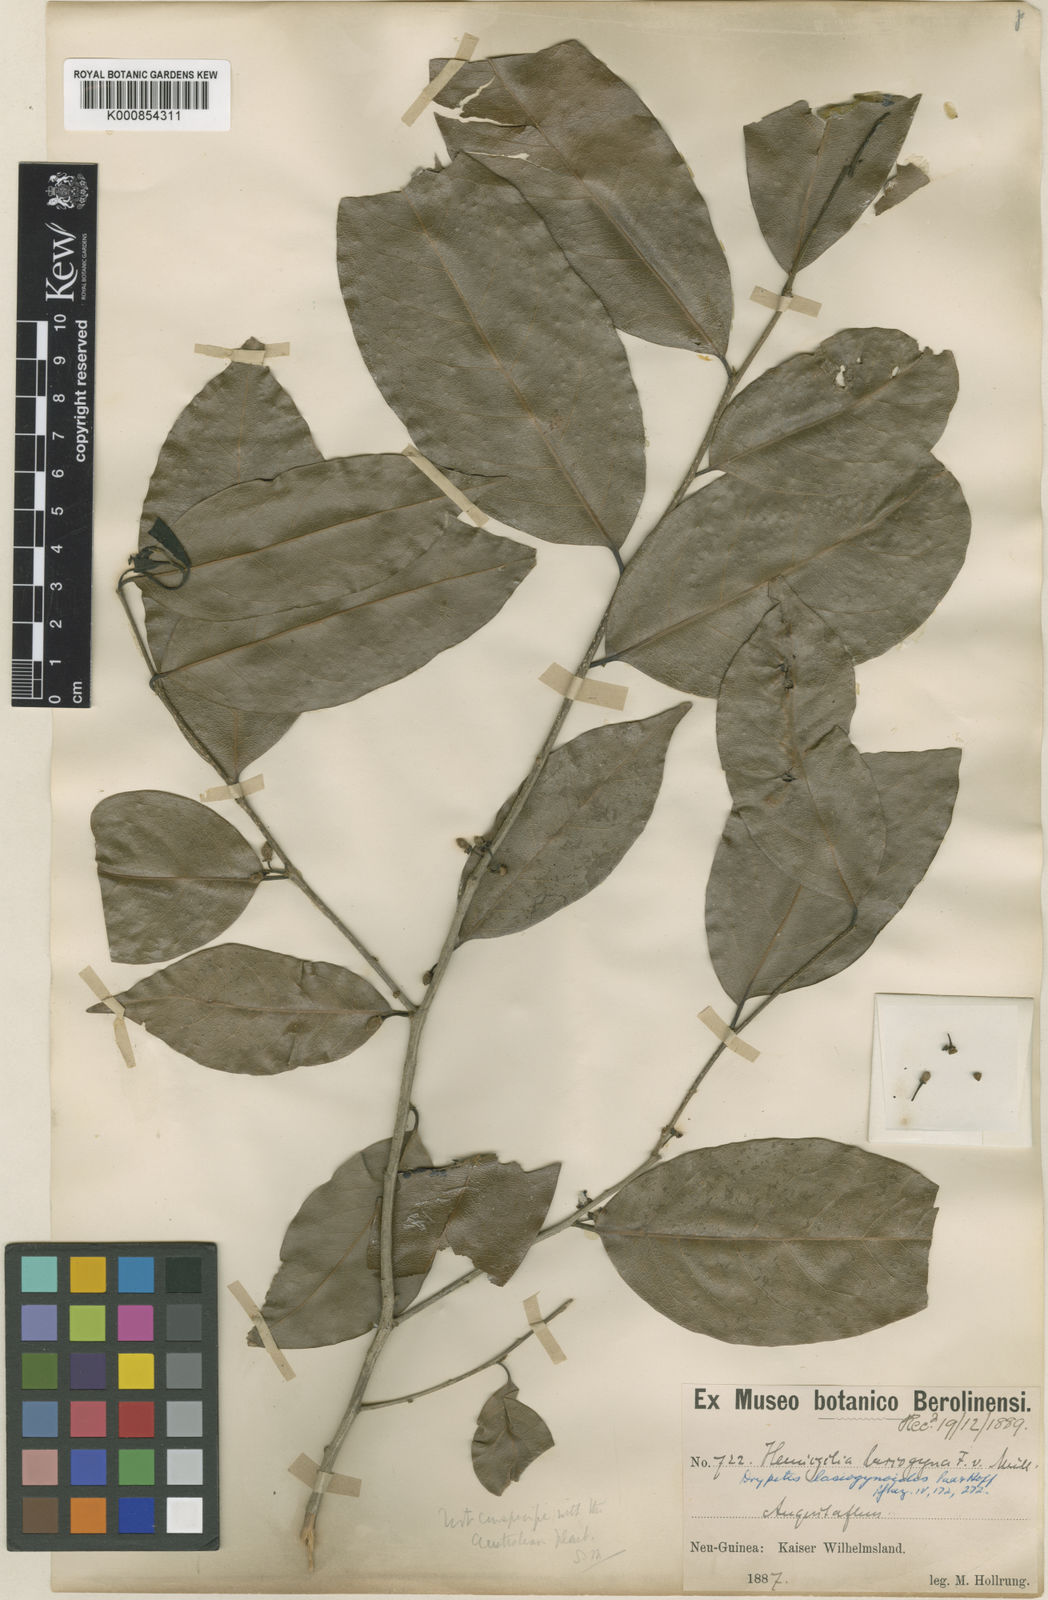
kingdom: Plantae
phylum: Tracheophyta
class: Magnoliopsida
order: Malpighiales
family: Putranjivaceae
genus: Drypetes
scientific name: Drypetes lasiogynoides
